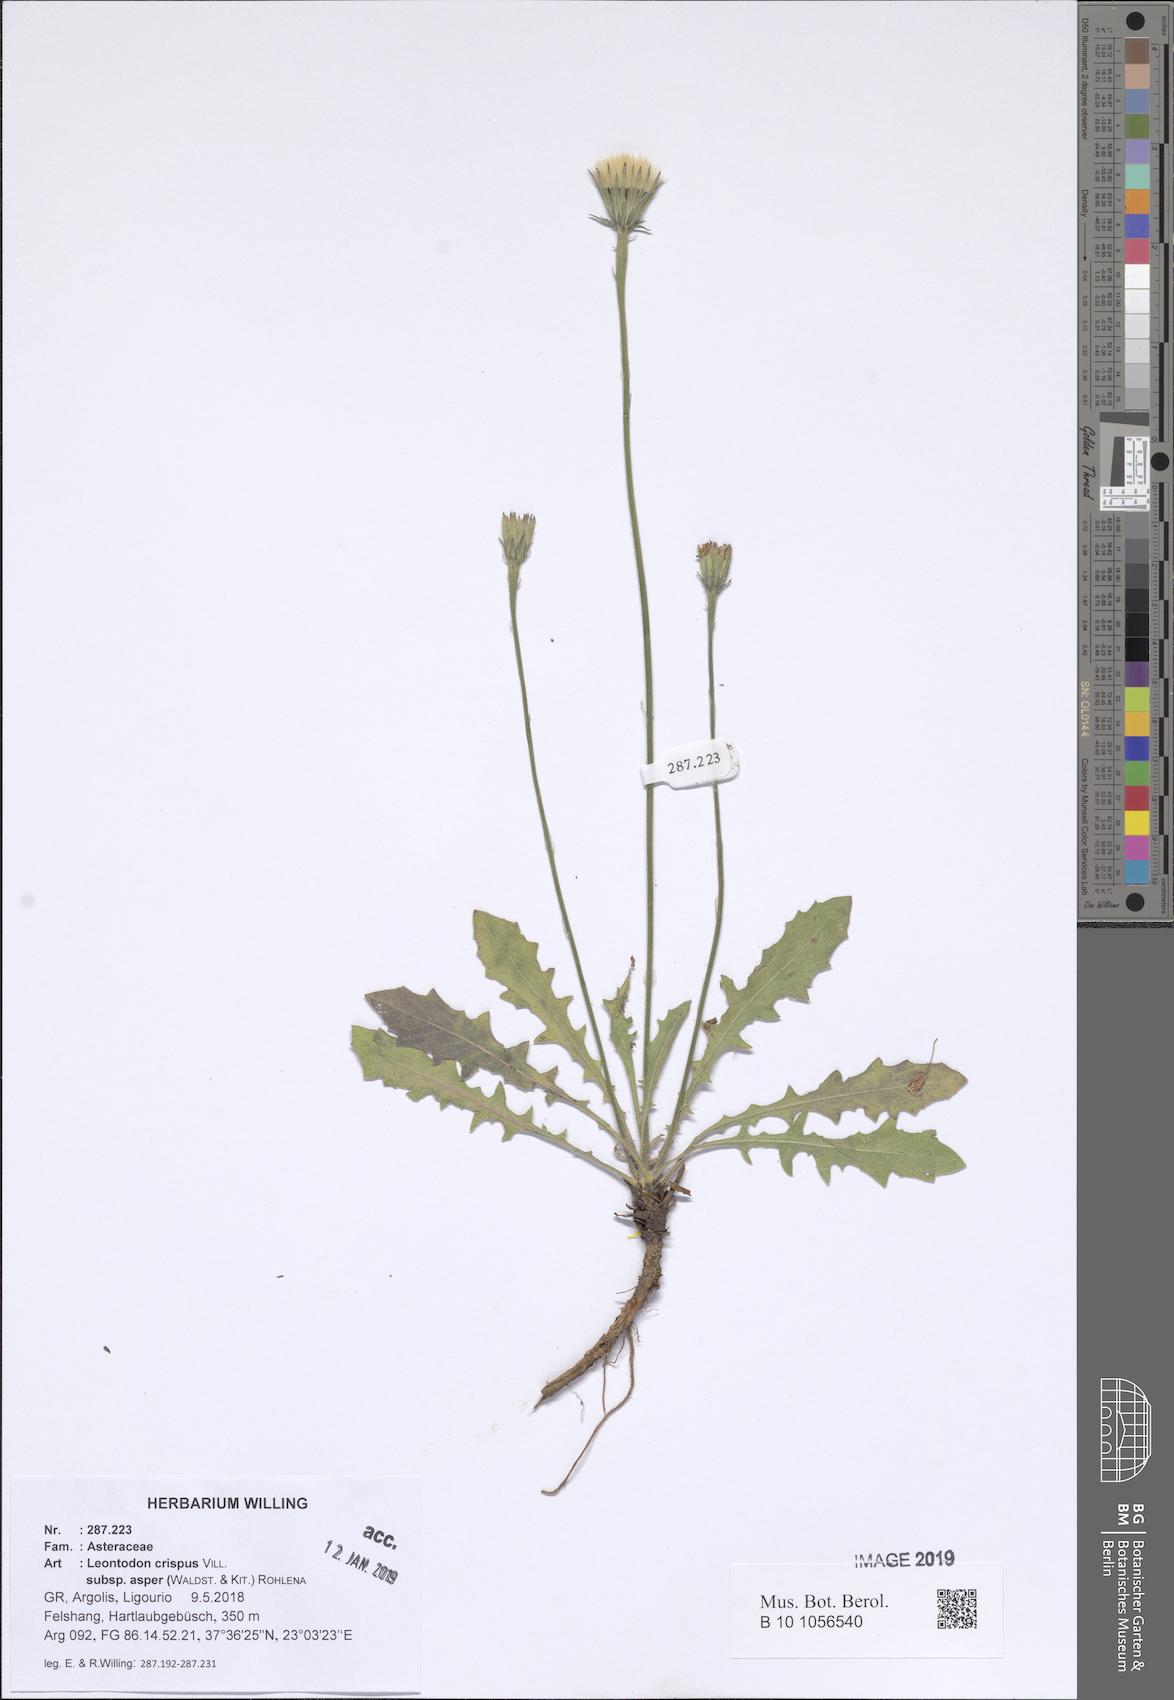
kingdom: Plantae
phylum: Tracheophyta
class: Magnoliopsida
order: Asterales
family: Asteraceae
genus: Leontodon
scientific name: Leontodon biscutellifolius
